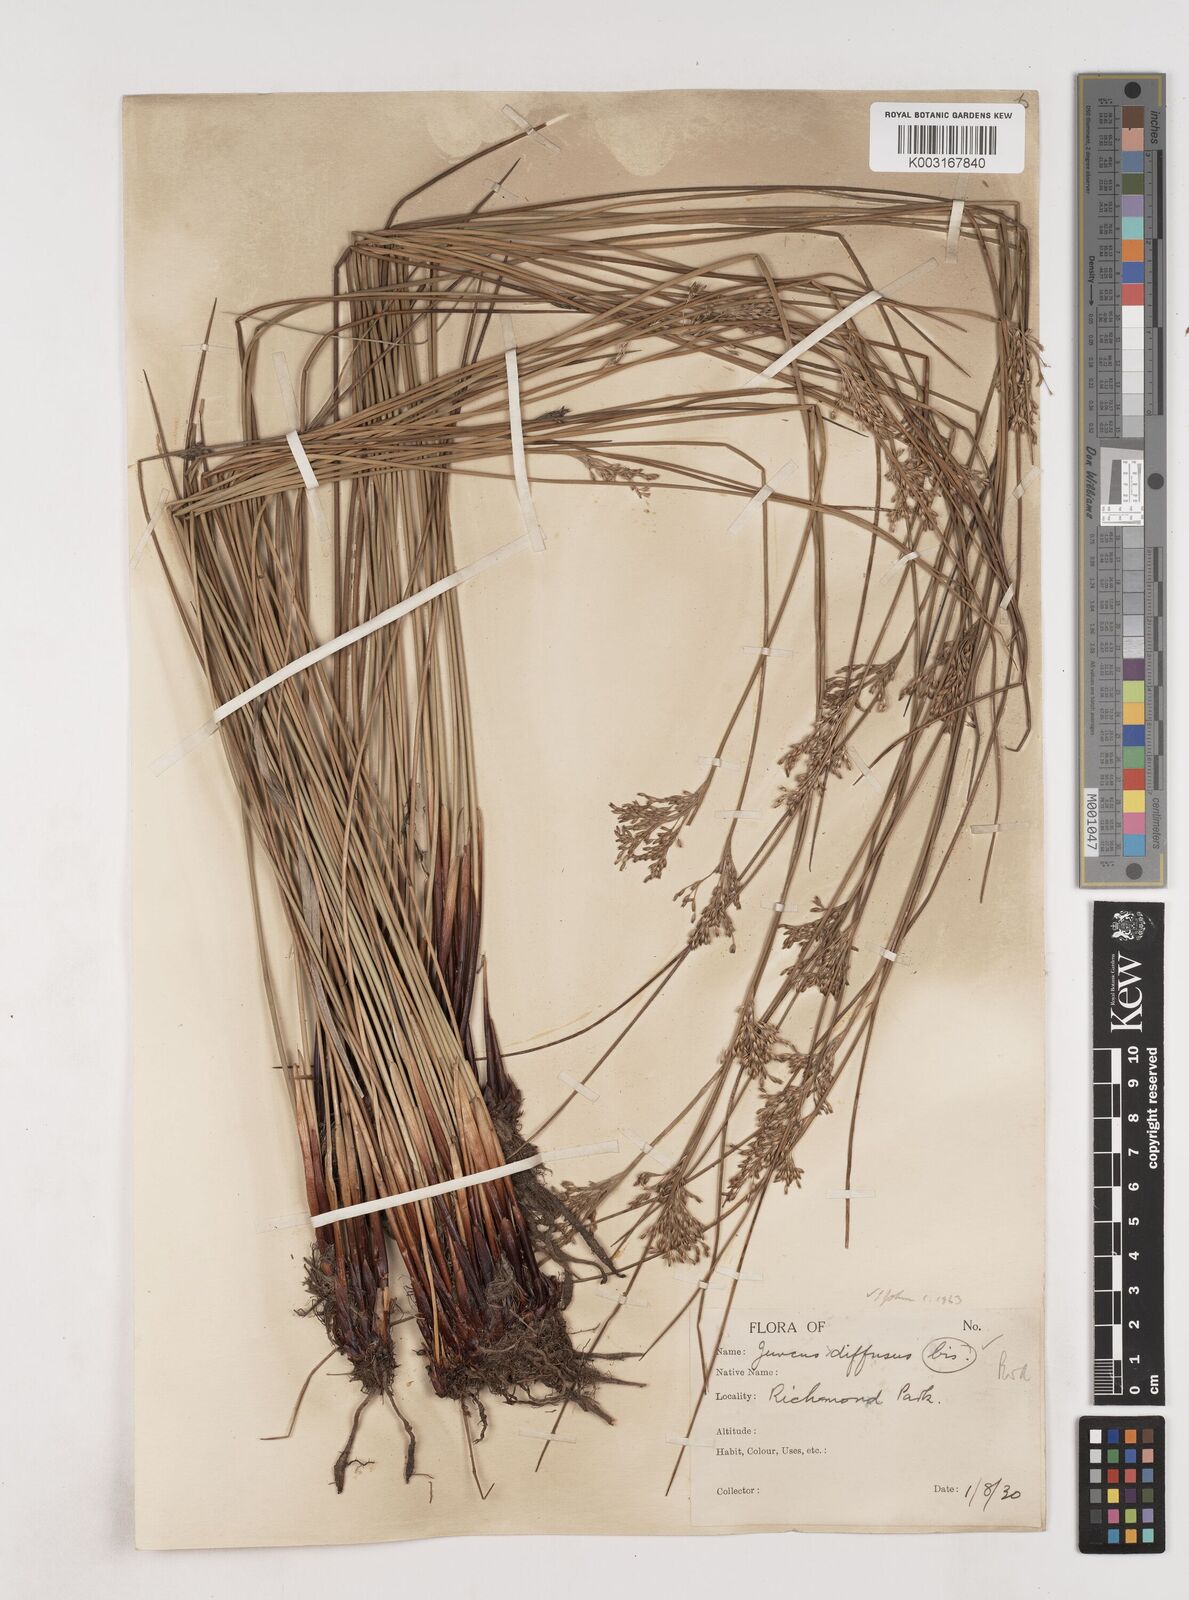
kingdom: Plantae
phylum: Tracheophyta
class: Liliopsida
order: Poales
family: Juncaceae
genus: Juncus
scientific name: Juncus effusus
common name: Soft rush
